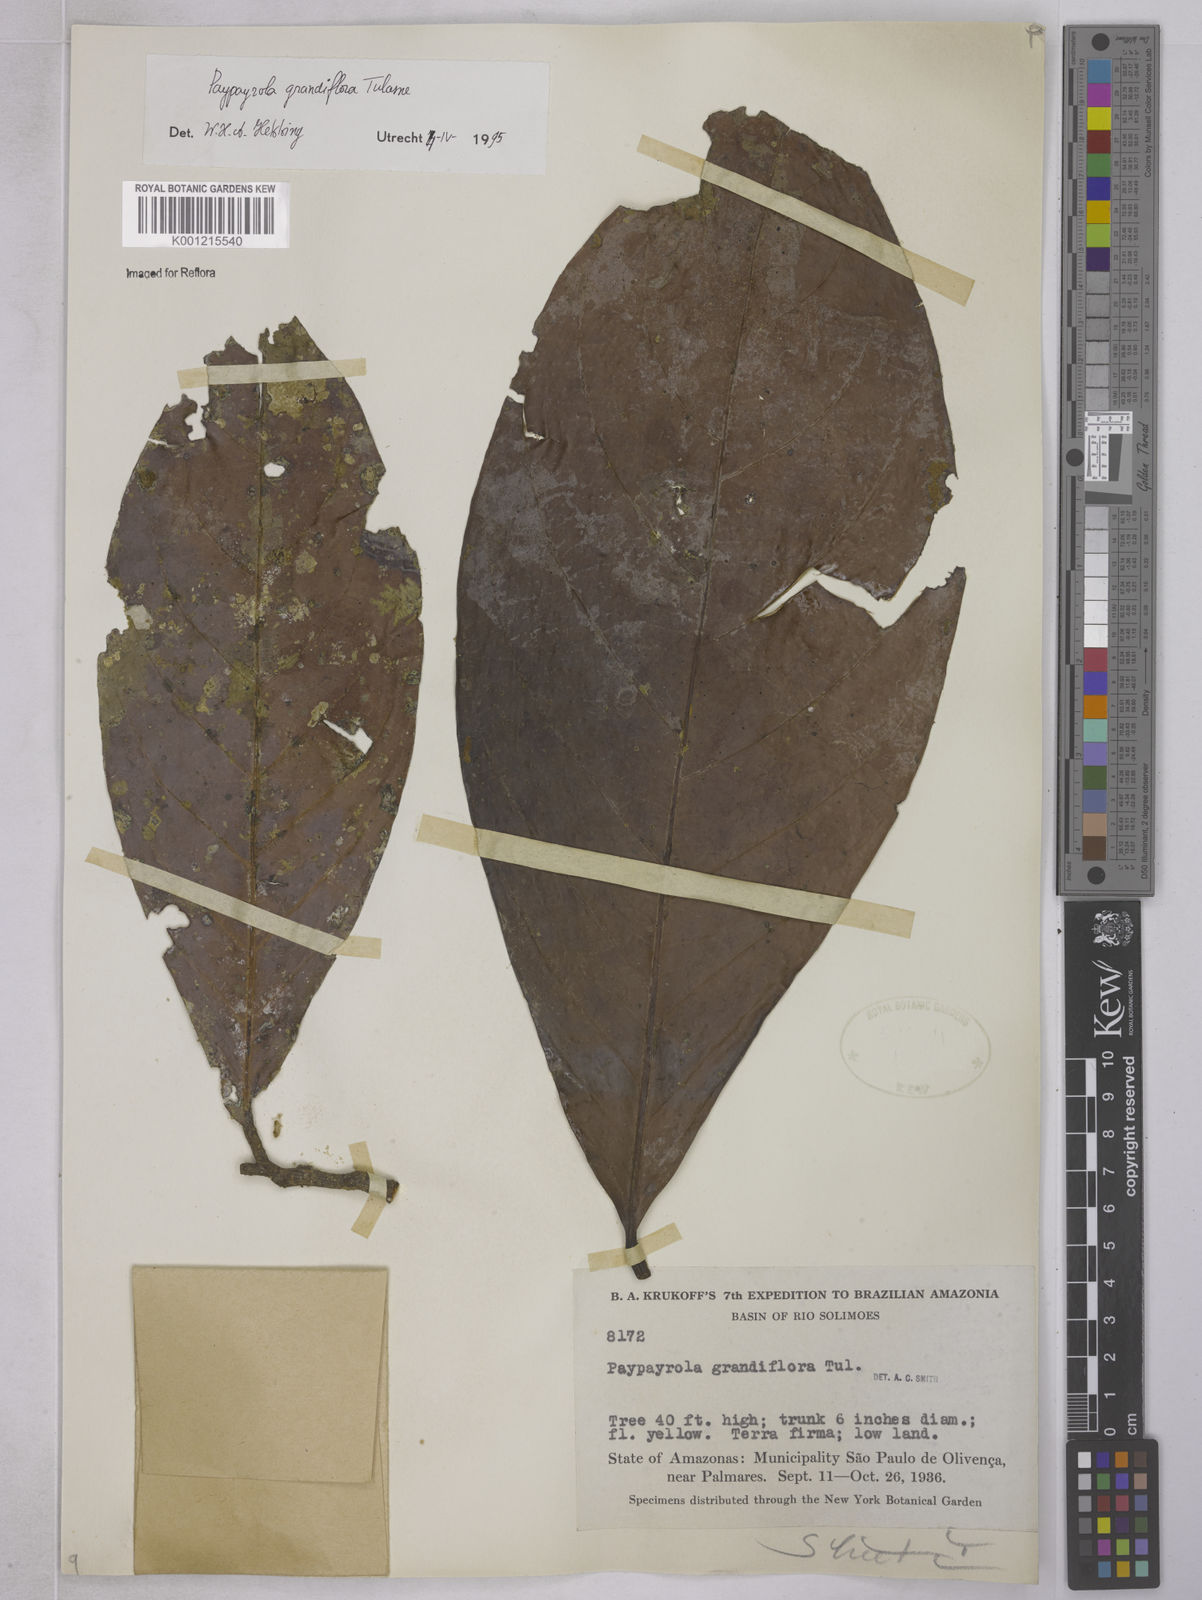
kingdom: Plantae
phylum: Tracheophyta
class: Magnoliopsida
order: Malpighiales
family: Violaceae
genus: Paypayrola
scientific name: Paypayrola grandiflora
